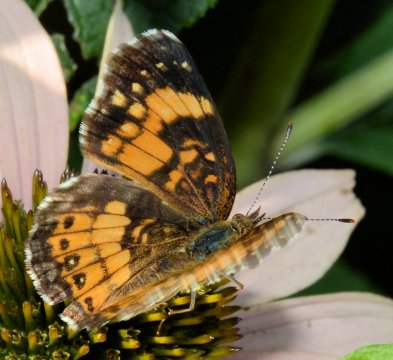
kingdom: Animalia
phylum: Arthropoda
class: Insecta
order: Lepidoptera
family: Nymphalidae
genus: Chlosyne
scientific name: Chlosyne nycteis
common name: Silvery Checkerspot
